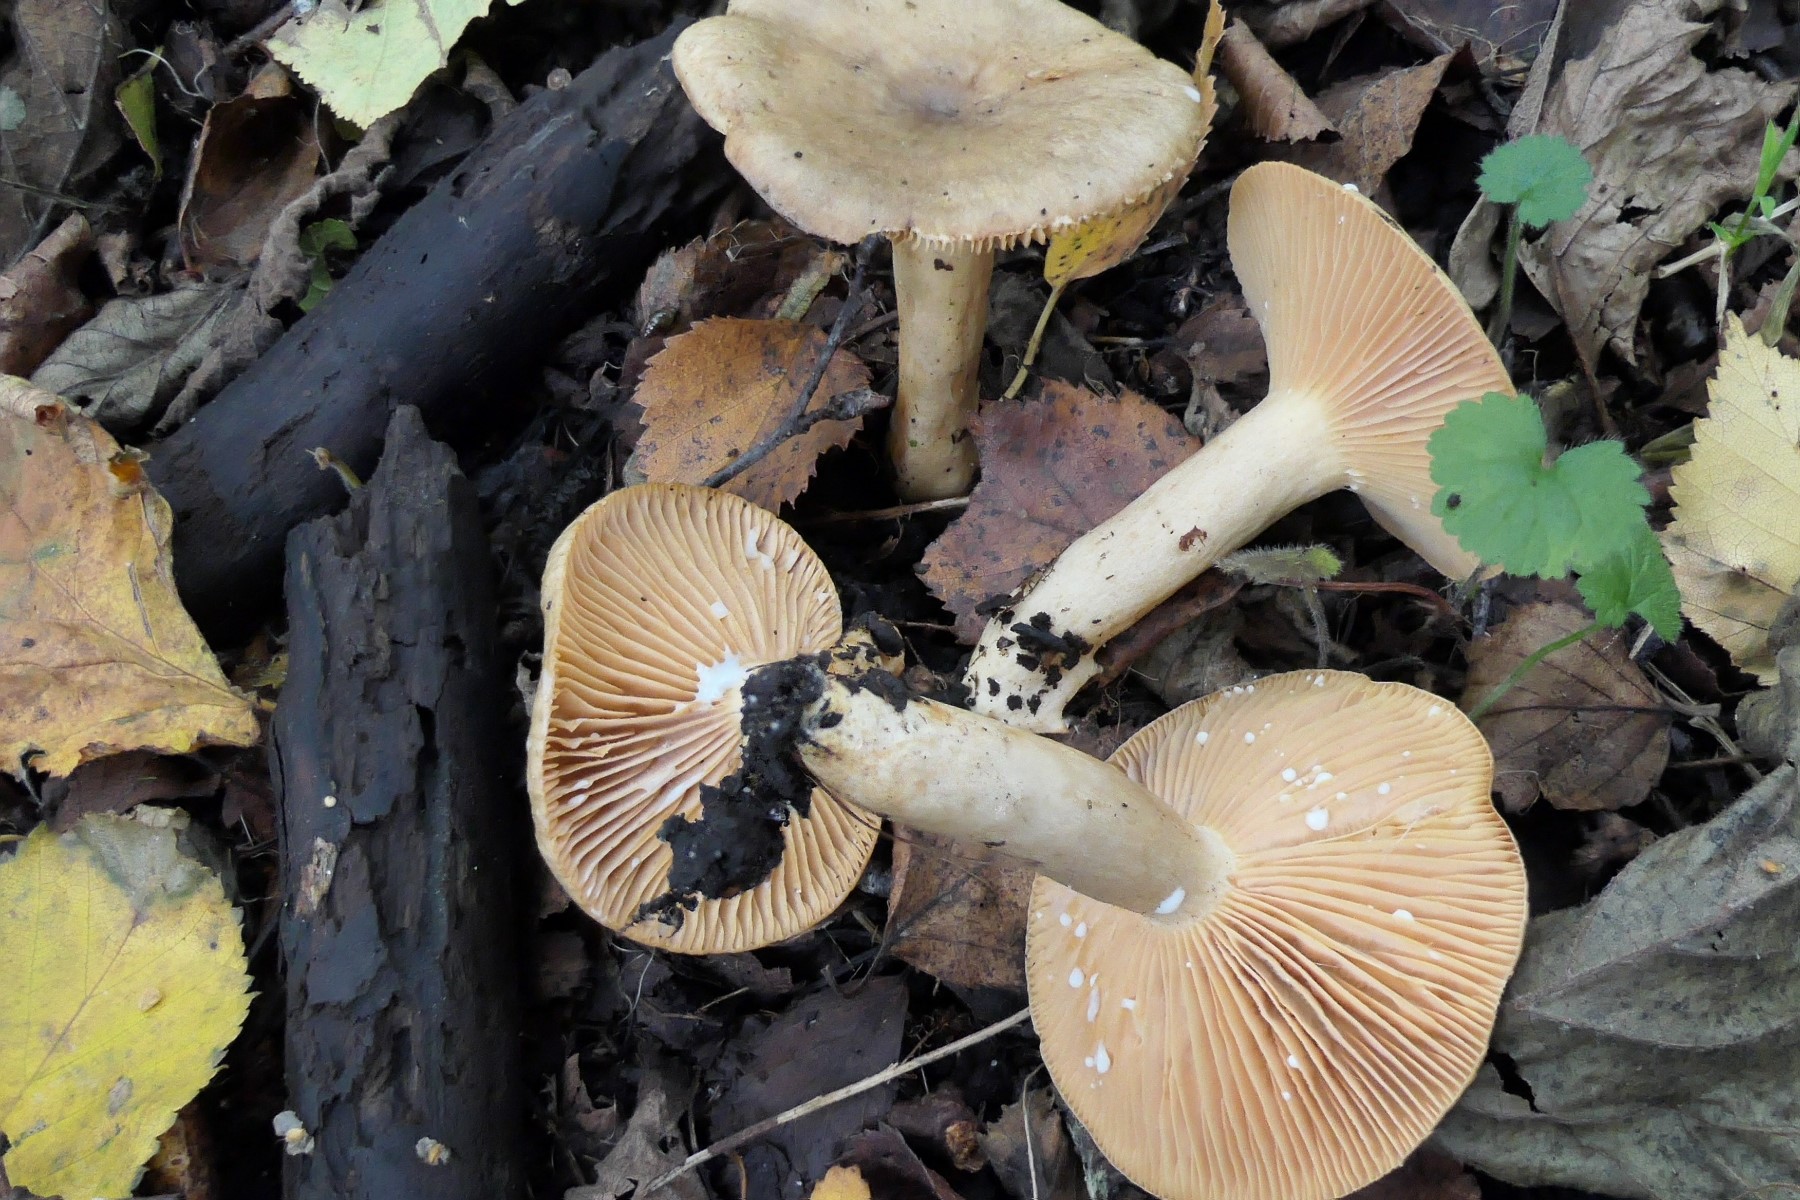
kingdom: Fungi
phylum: Basidiomycota
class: Agaricomycetes
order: Russulales
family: Russulaceae
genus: Lactarius
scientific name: Lactarius pyrogalus
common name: hassel-mælkehat
